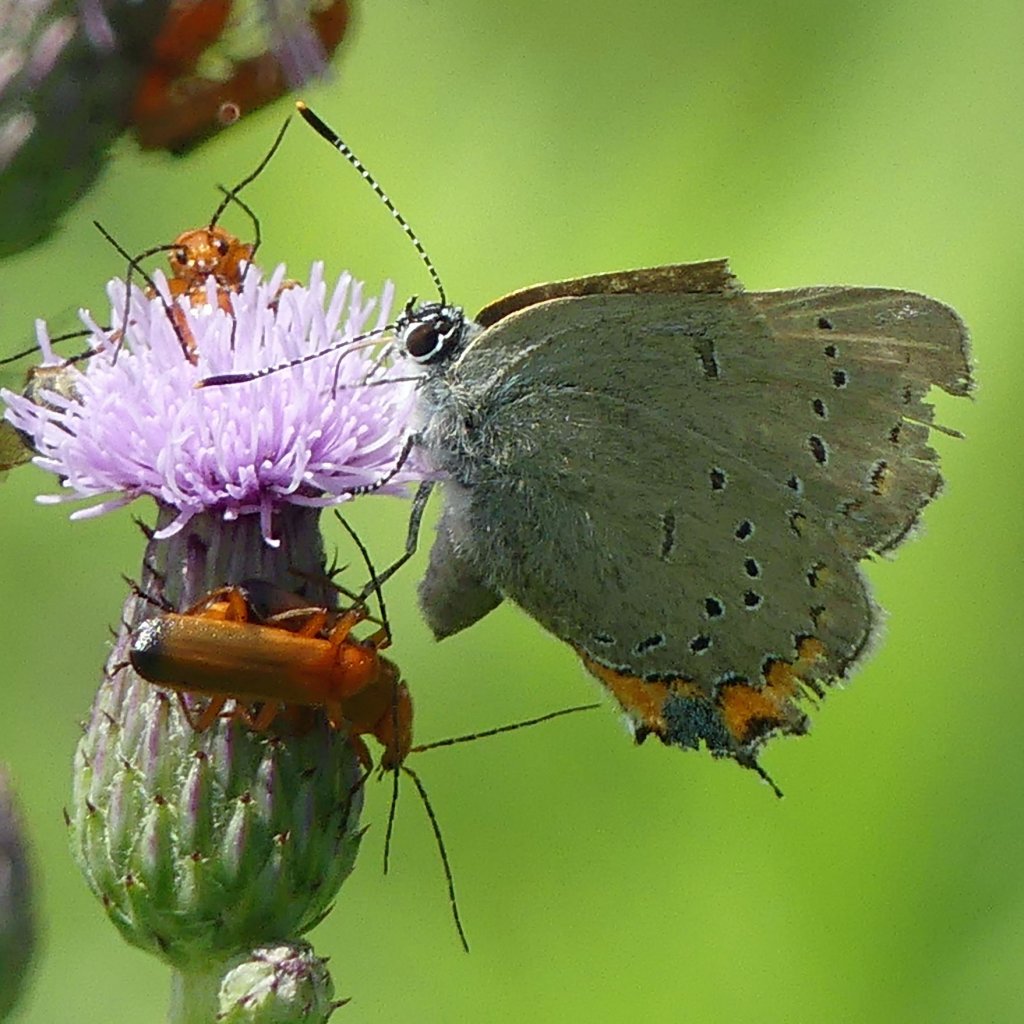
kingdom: Animalia
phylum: Arthropoda
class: Insecta
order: Lepidoptera
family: Lycaenidae
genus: Strymon
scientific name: Strymon acadica
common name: Acadian Hairstreak
